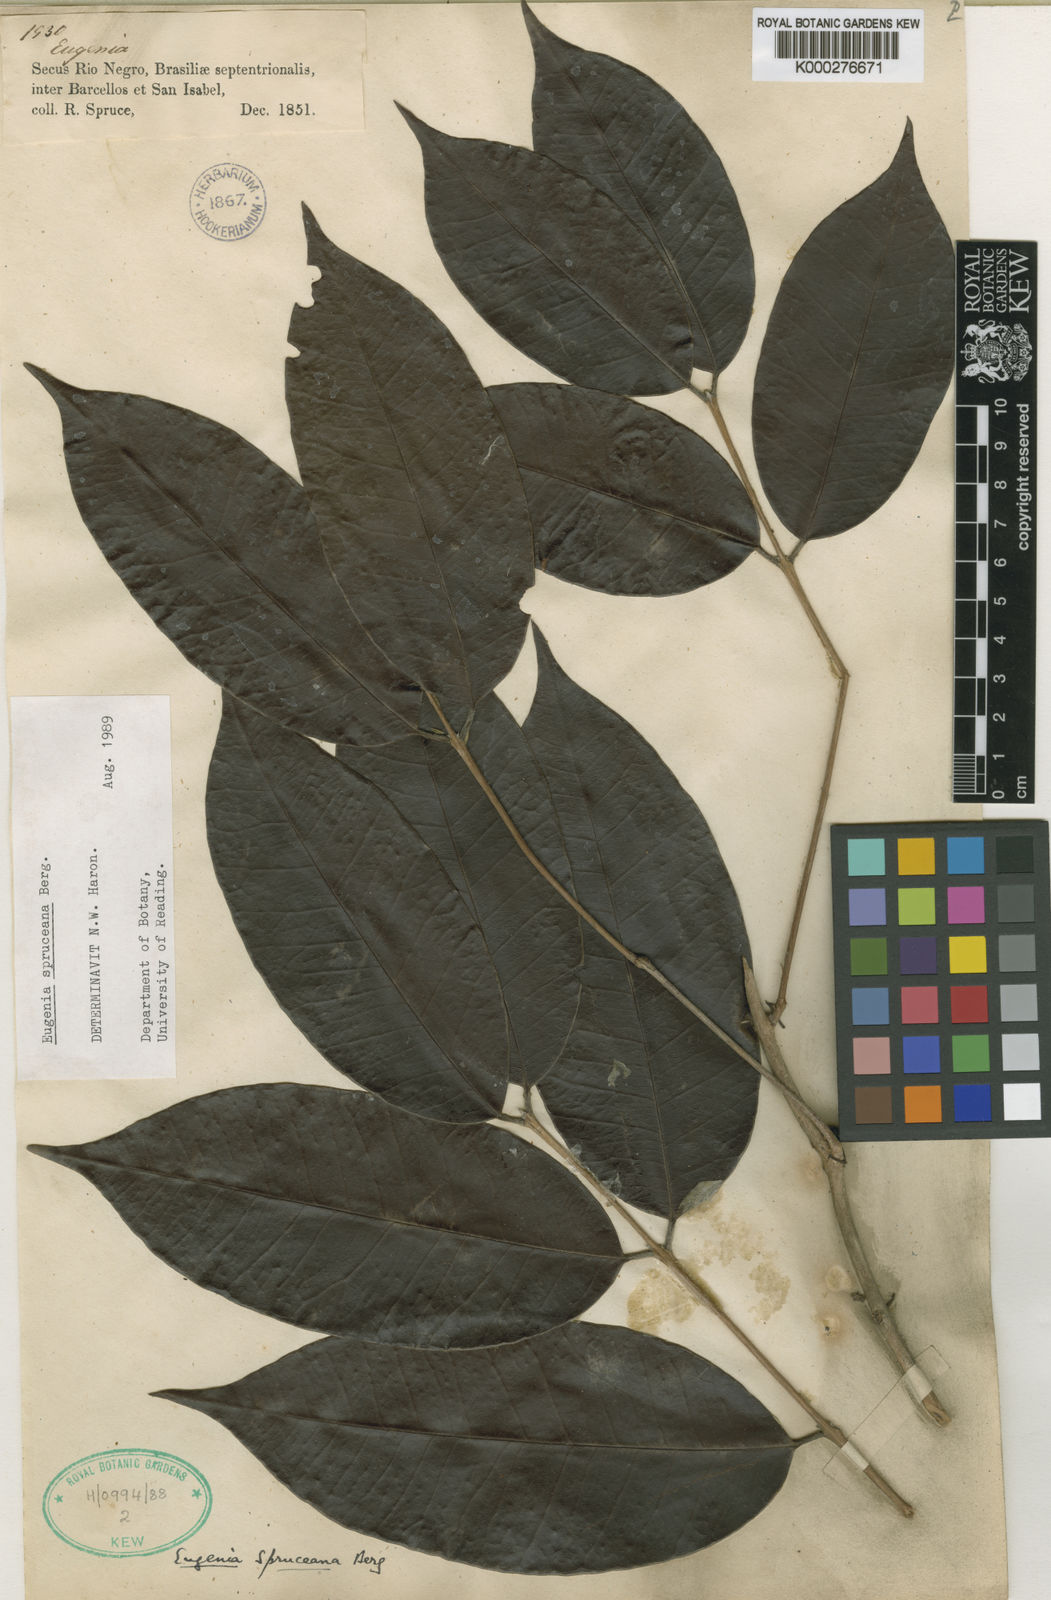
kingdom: Plantae
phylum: Tracheophyta
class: Magnoliopsida
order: Myrtales
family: Myrtaceae
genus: Eugenia
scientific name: Eugenia spruceana
